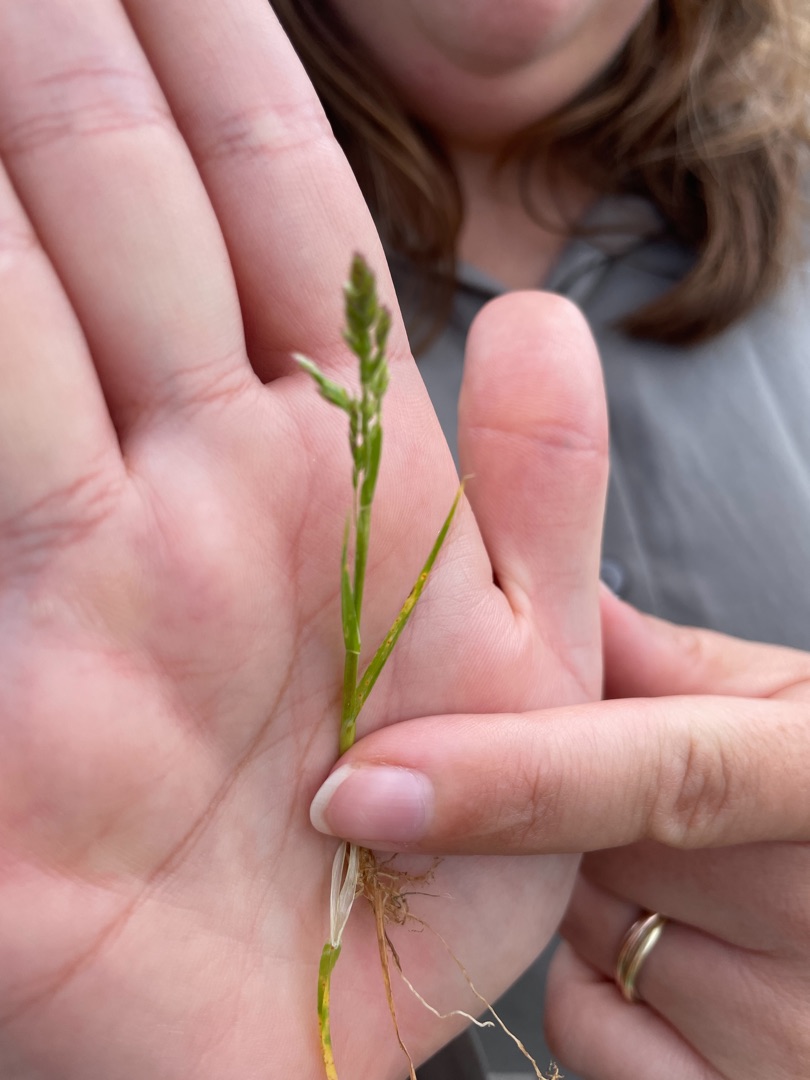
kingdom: Plantae
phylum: Tracheophyta
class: Liliopsida
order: Poales
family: Poaceae
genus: Poa
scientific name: Poa annua
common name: Enårig rapgræs
